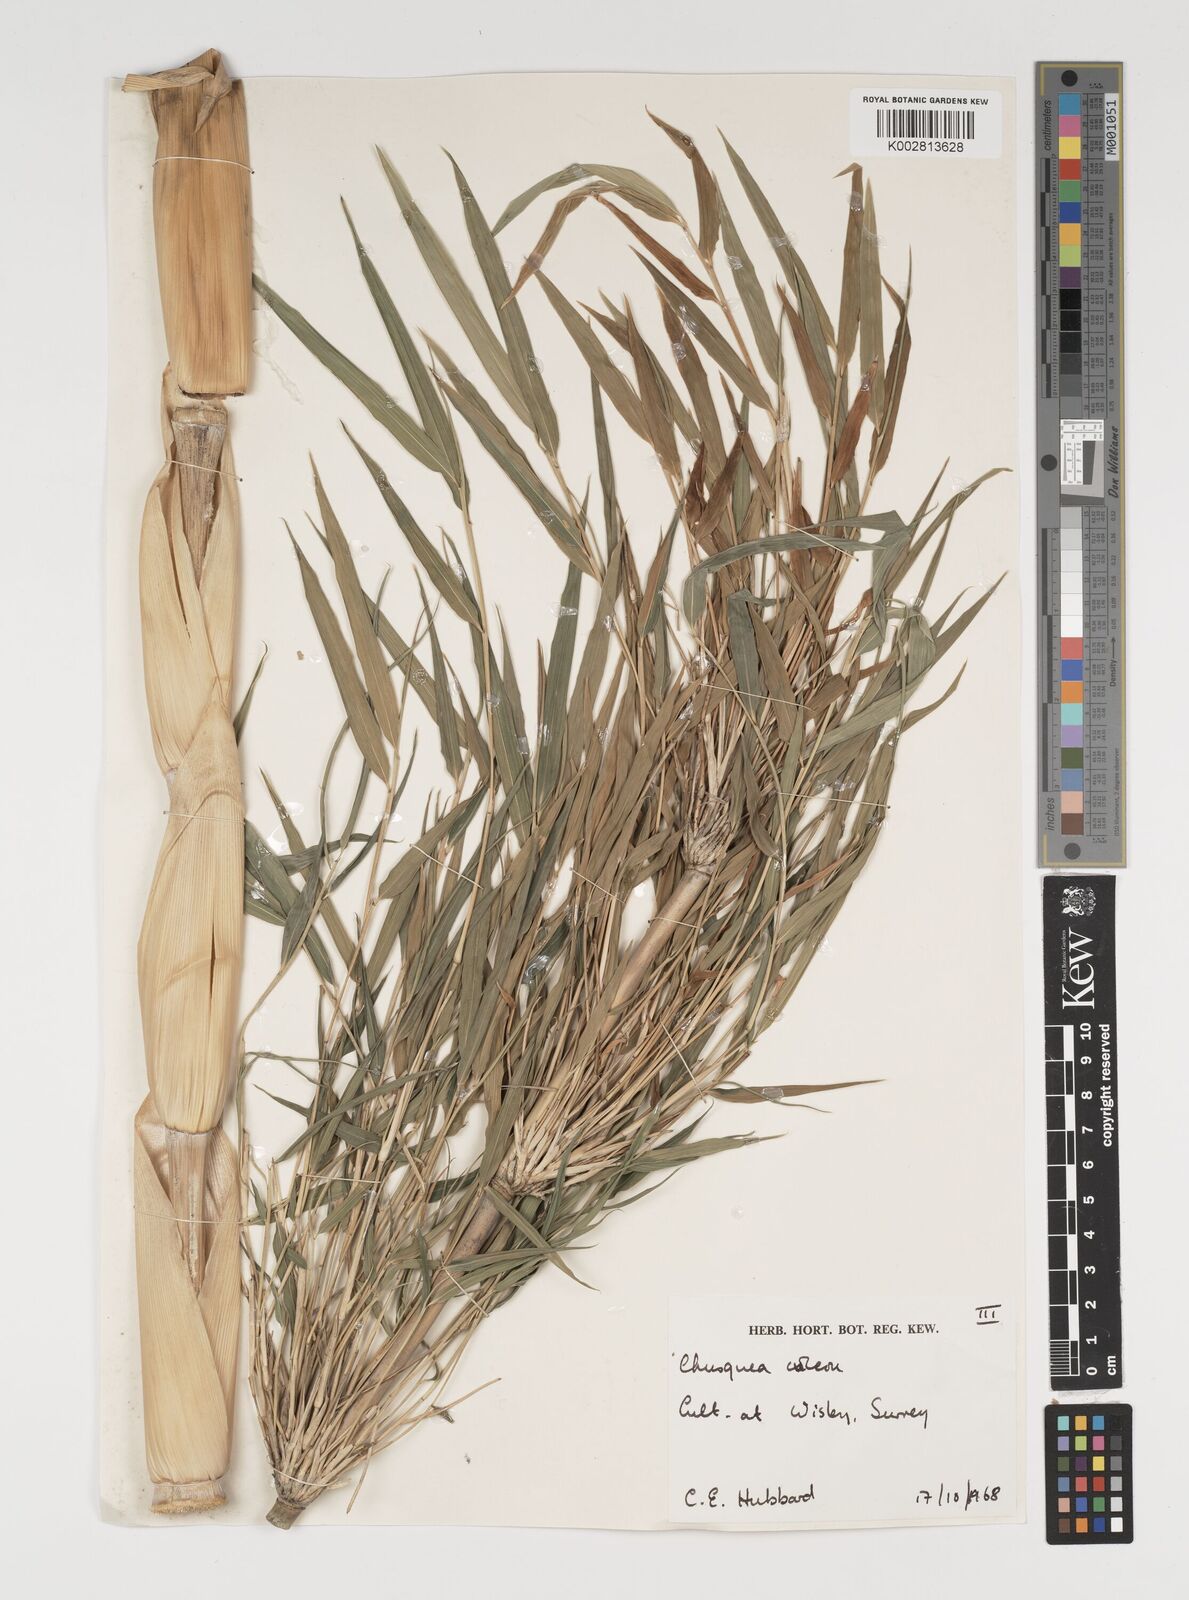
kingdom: Plantae
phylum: Tracheophyta
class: Liliopsida
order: Poales
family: Poaceae
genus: Chusquea
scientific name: Chusquea culeou
